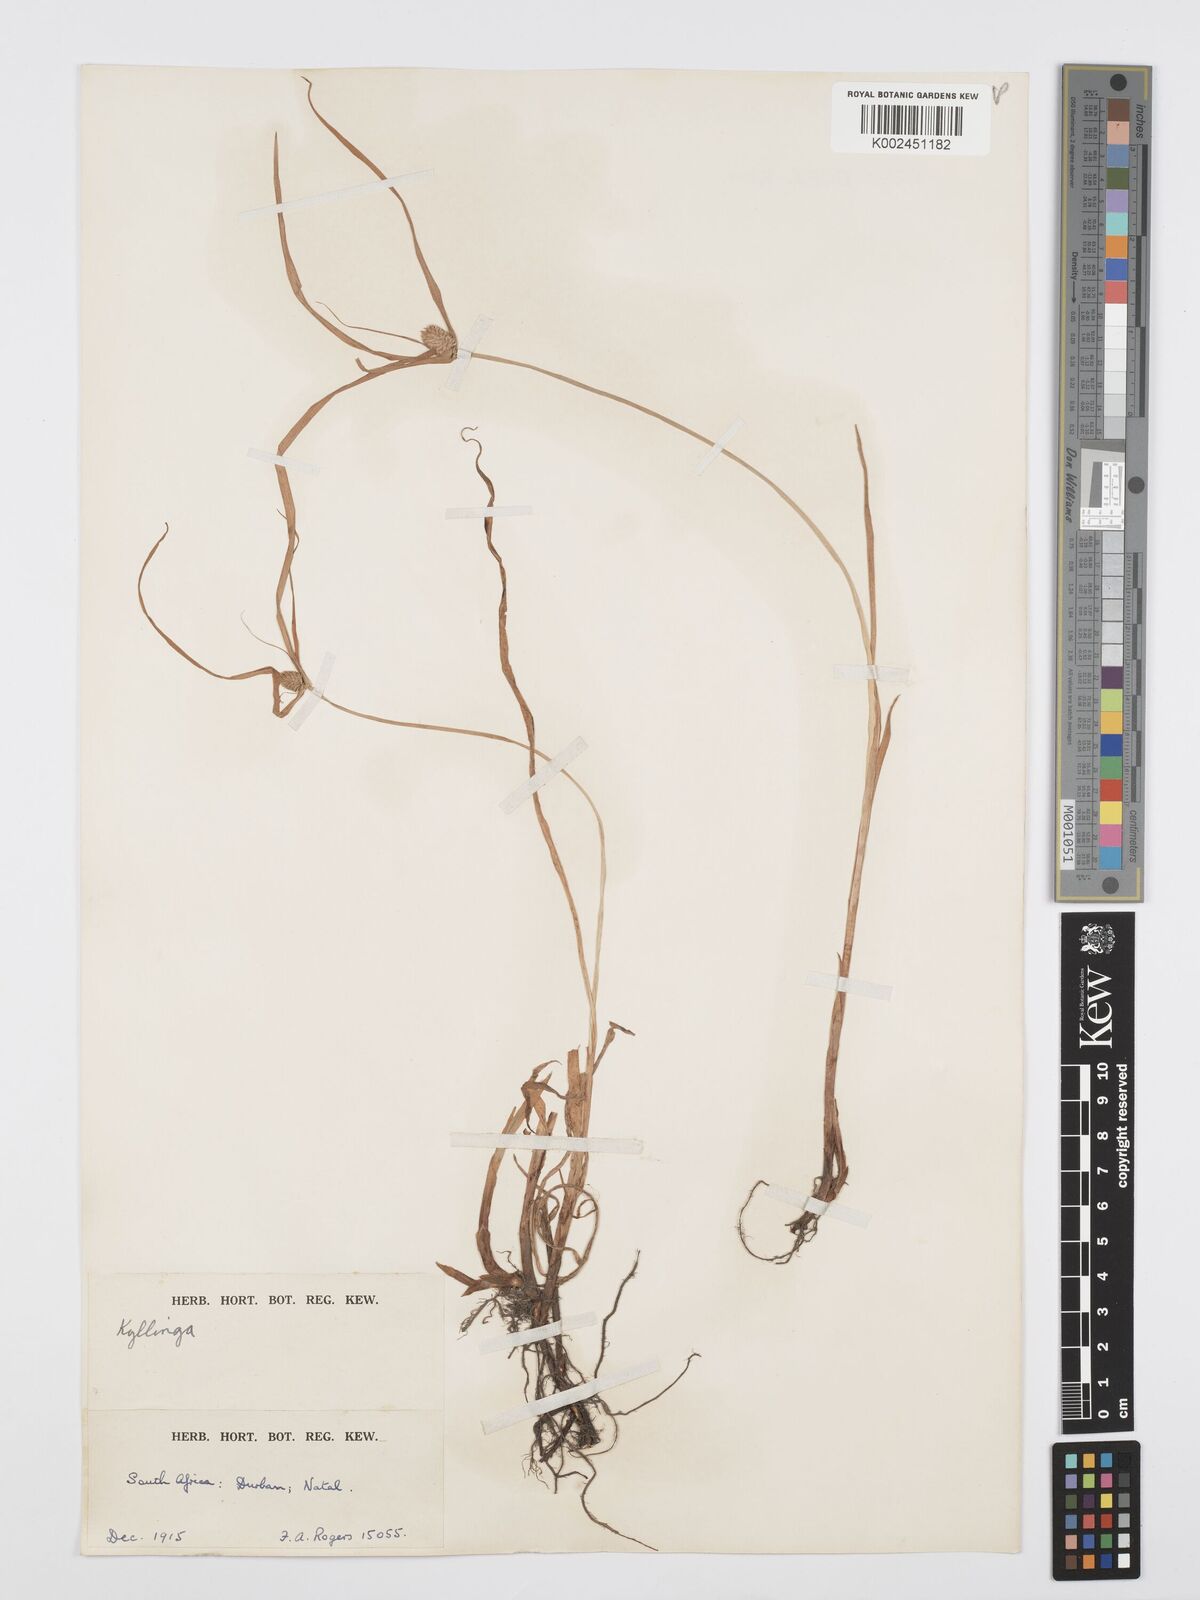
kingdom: Plantae
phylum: Tracheophyta
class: Liliopsida
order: Poales
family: Cyperaceae
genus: Cyperus
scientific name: Cyperus
